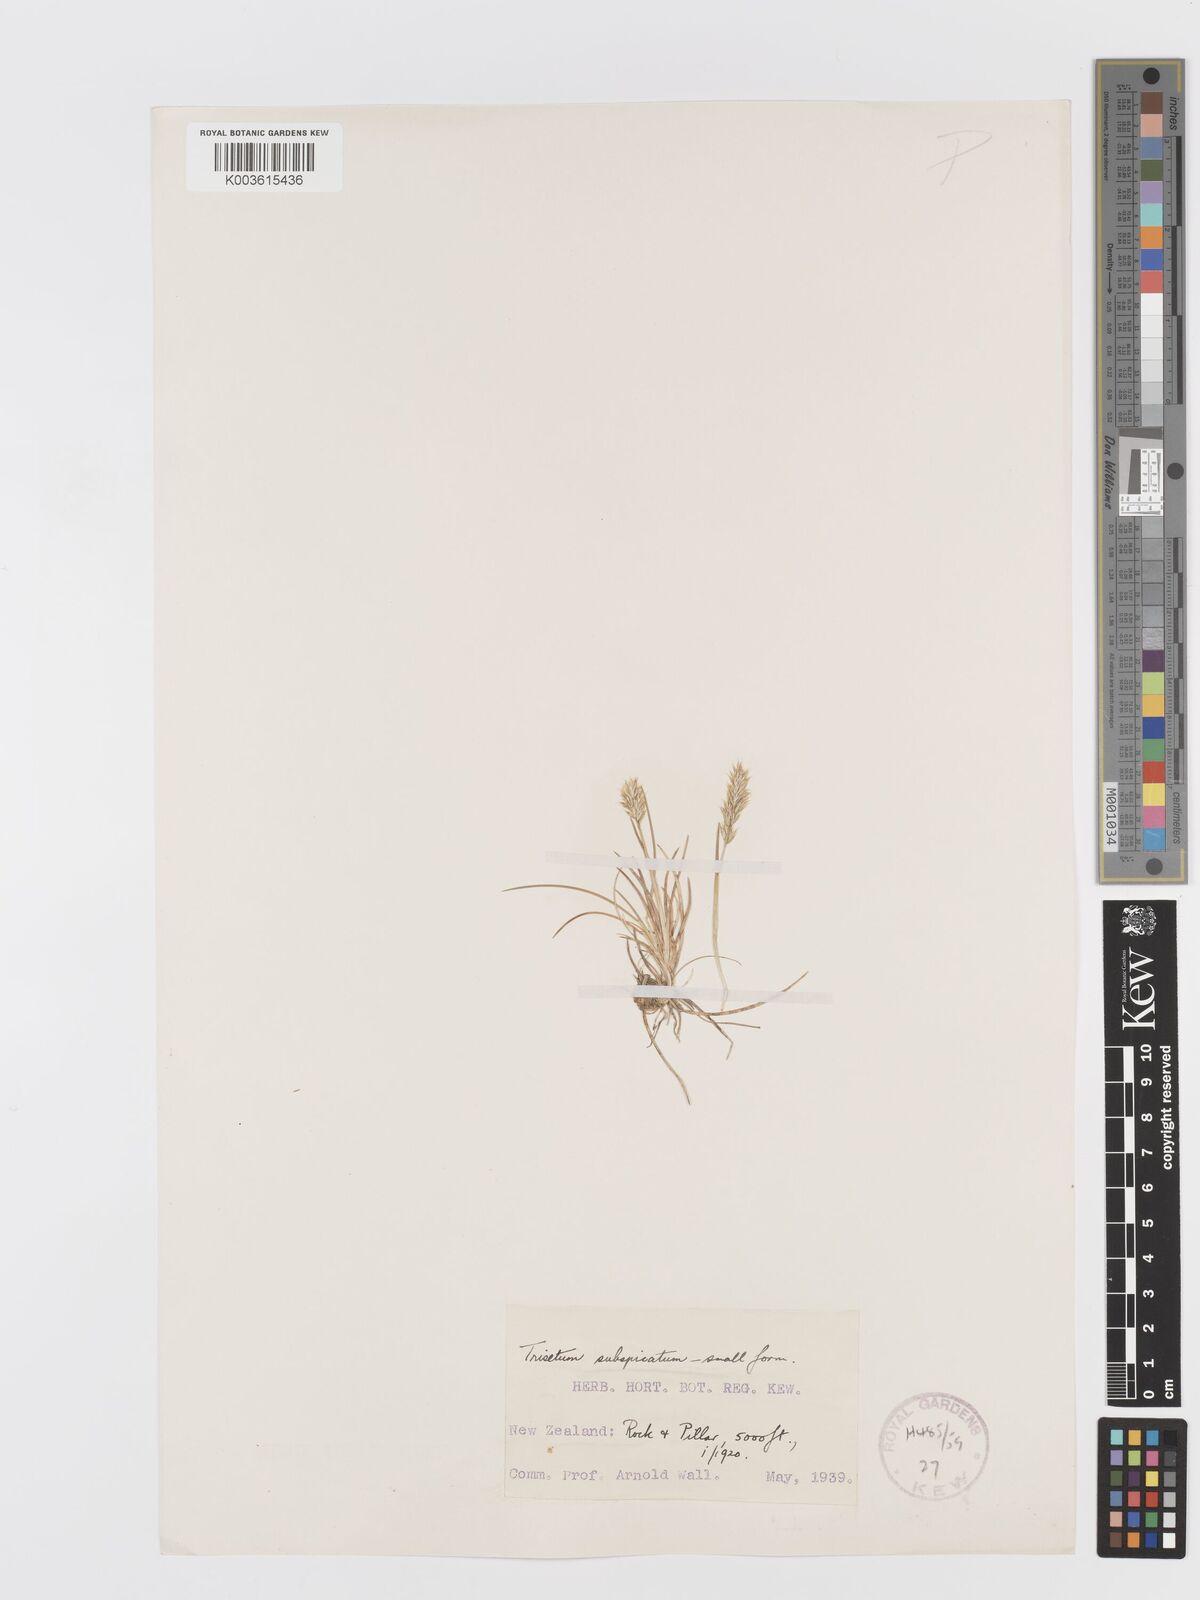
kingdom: Plantae
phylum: Tracheophyta
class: Liliopsida
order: Poales
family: Poaceae
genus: Koeleria
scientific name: Koeleria spicata
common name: Mountain trisetum
